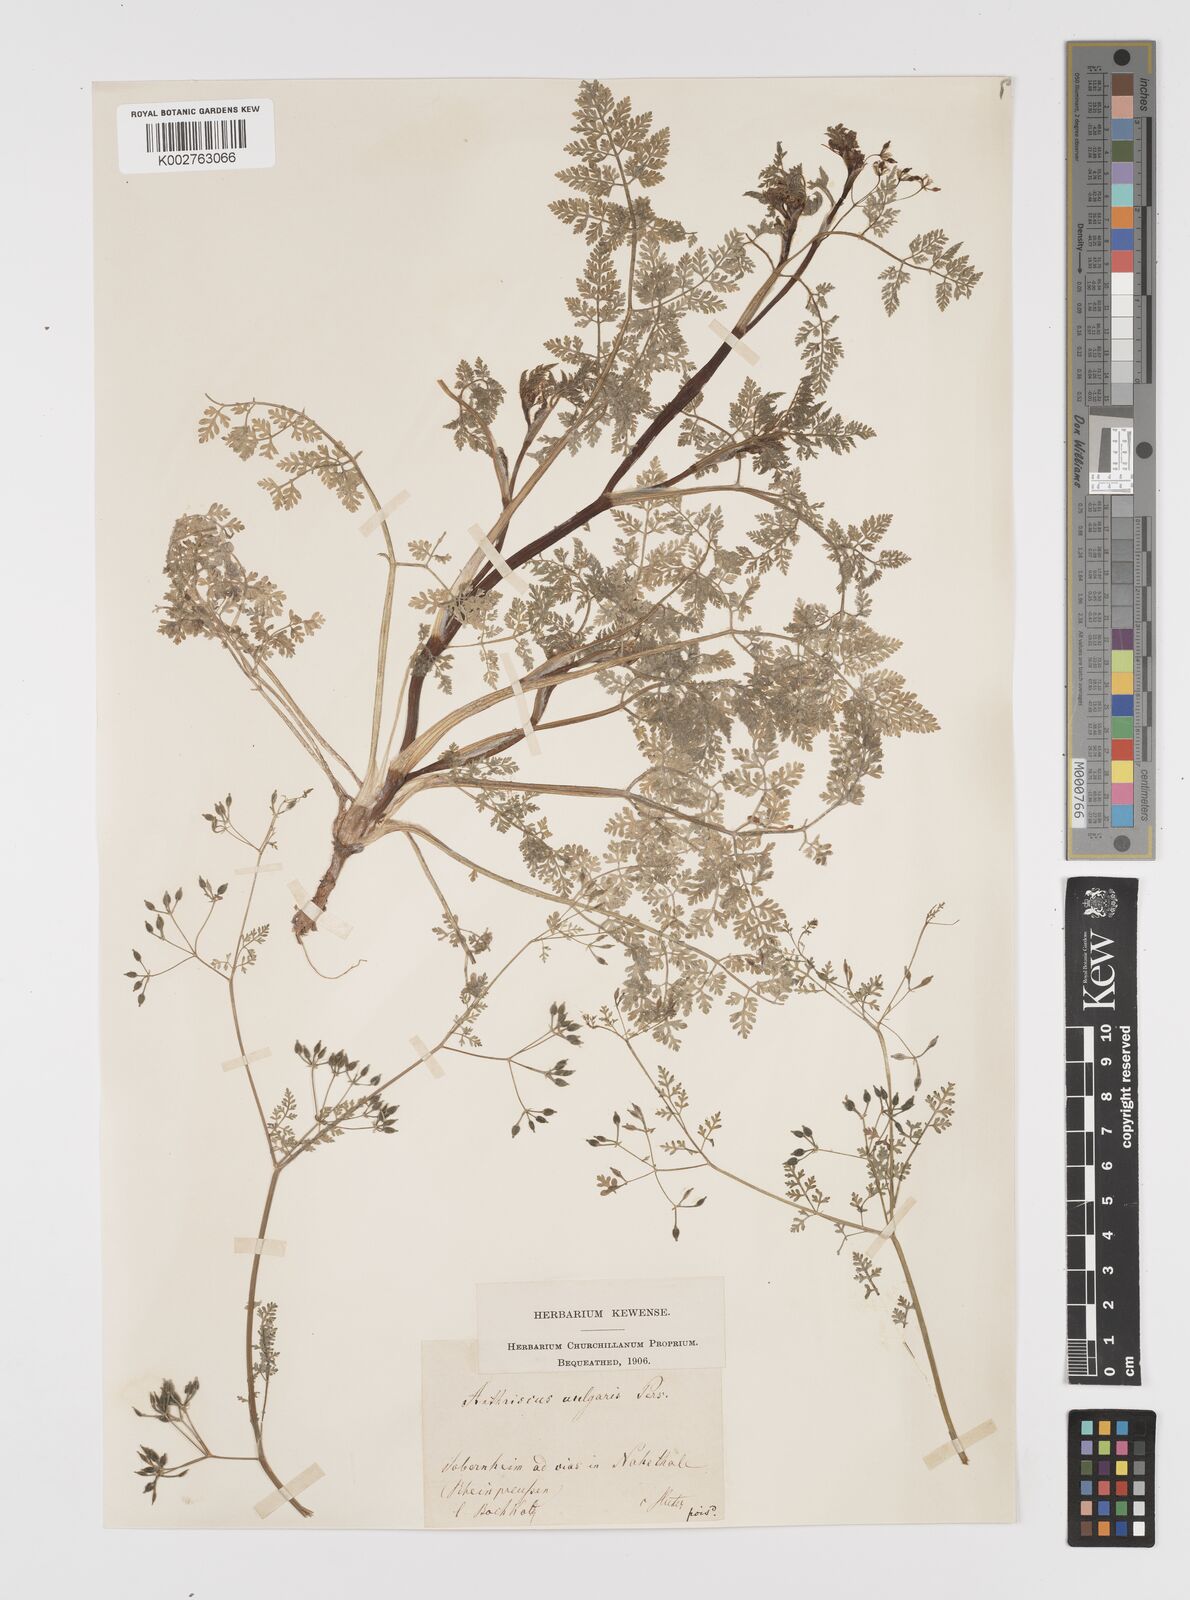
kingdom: Plantae
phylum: Tracheophyta
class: Magnoliopsida
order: Apiales
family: Apiaceae
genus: Anthriscus
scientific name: Anthriscus caucalis
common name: Bur chervil
